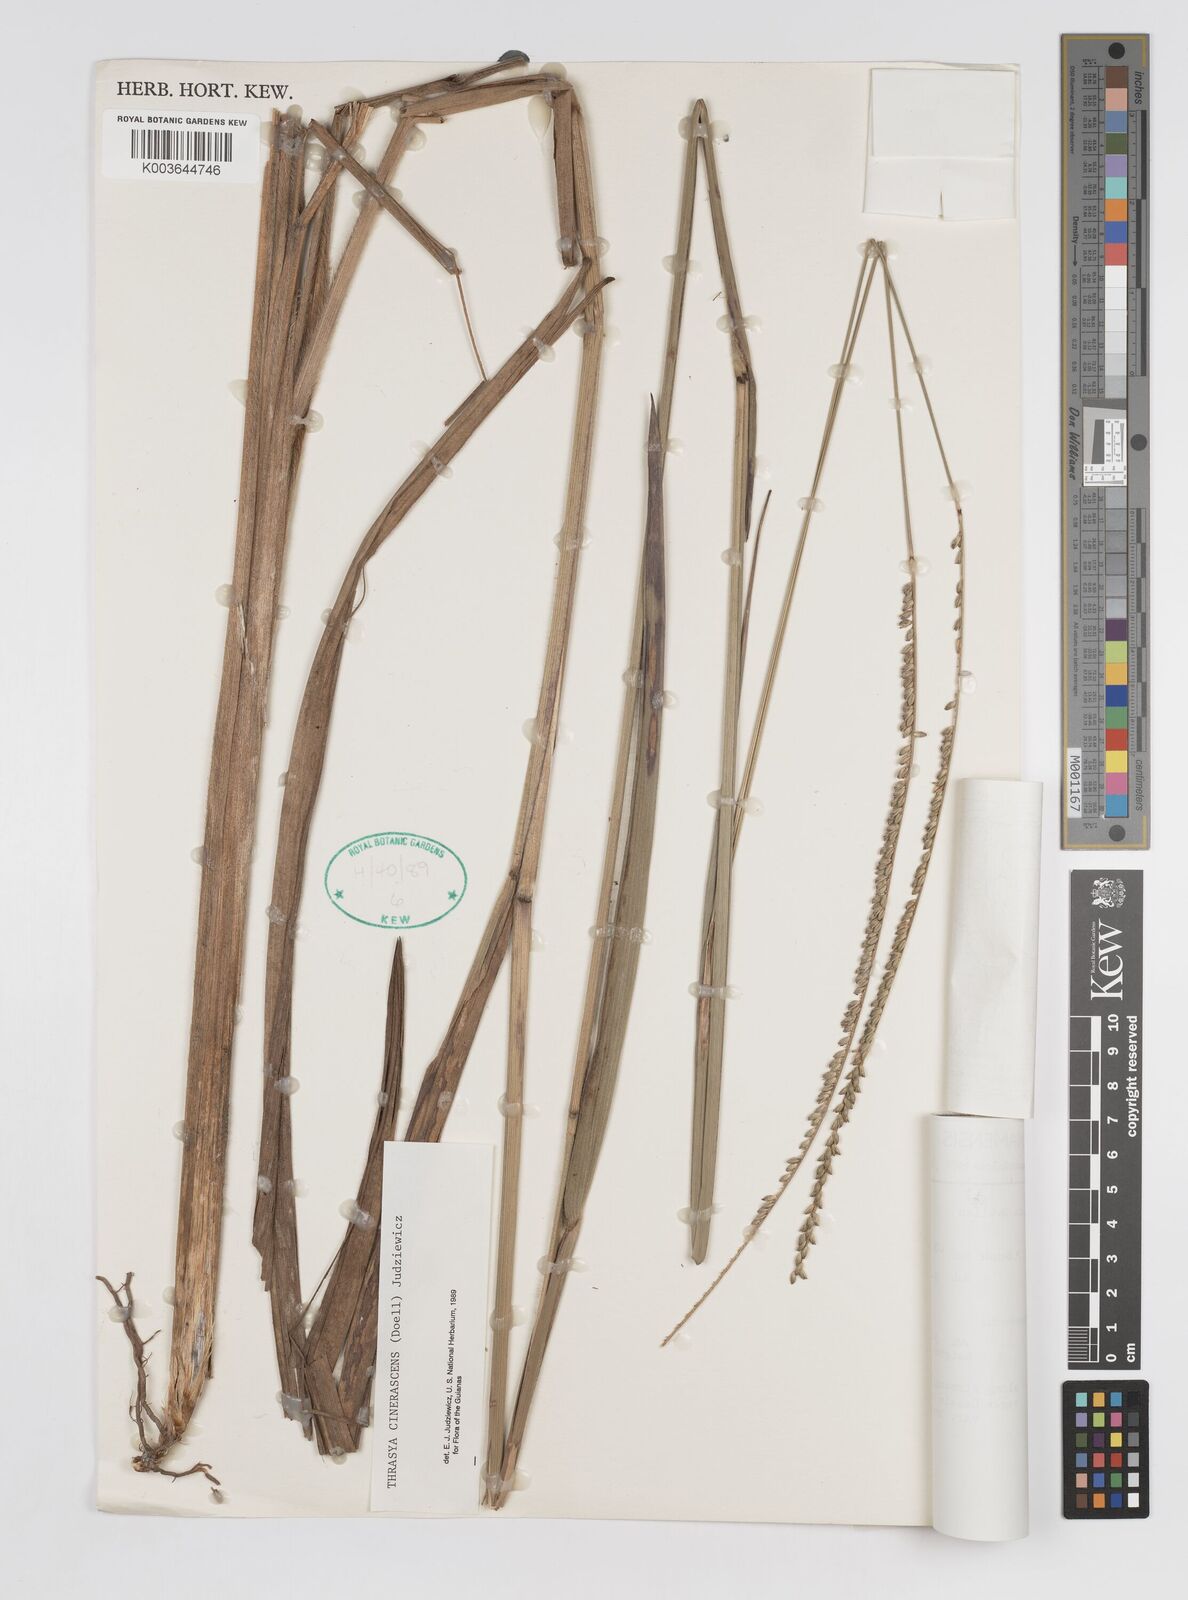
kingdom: Plantae
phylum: Tracheophyta
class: Liliopsida
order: Poales
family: Poaceae
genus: Paspalum
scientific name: Paspalum cinerascens
